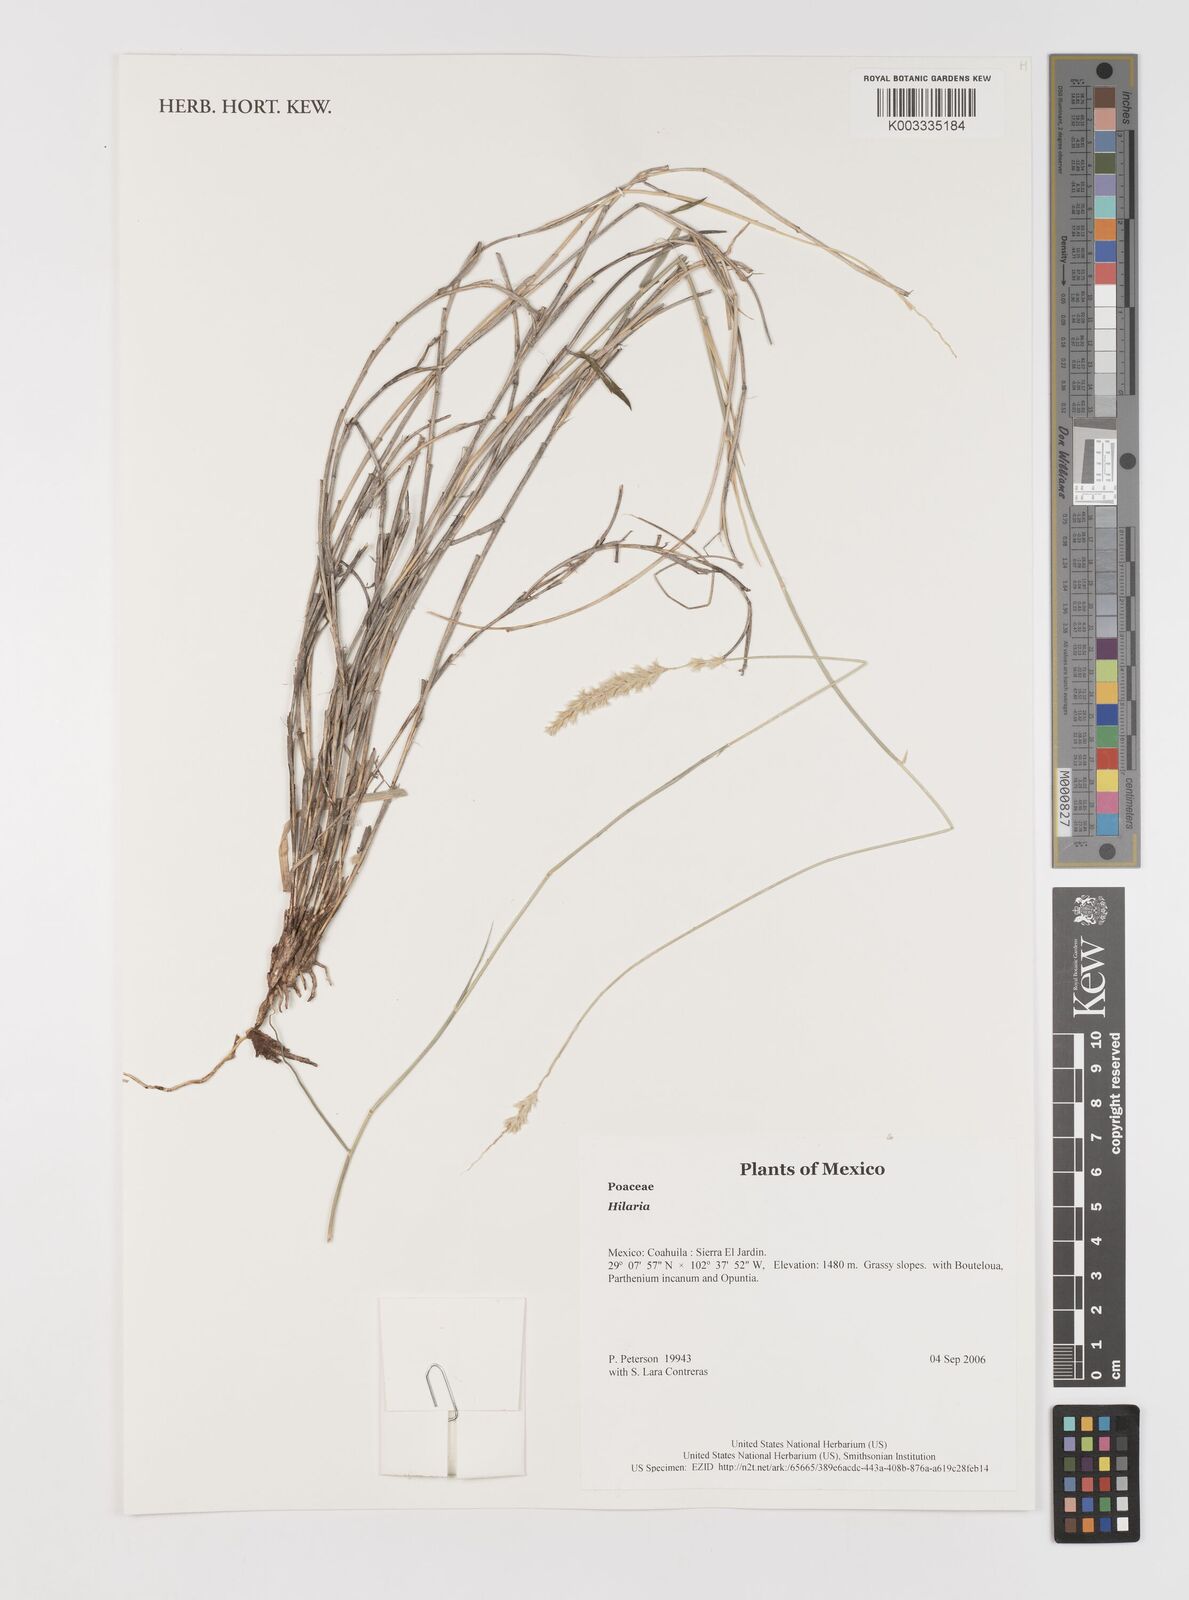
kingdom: Plantae
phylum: Tracheophyta
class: Liliopsida
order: Poales
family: Poaceae
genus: Hilaria
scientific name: Hilaria
